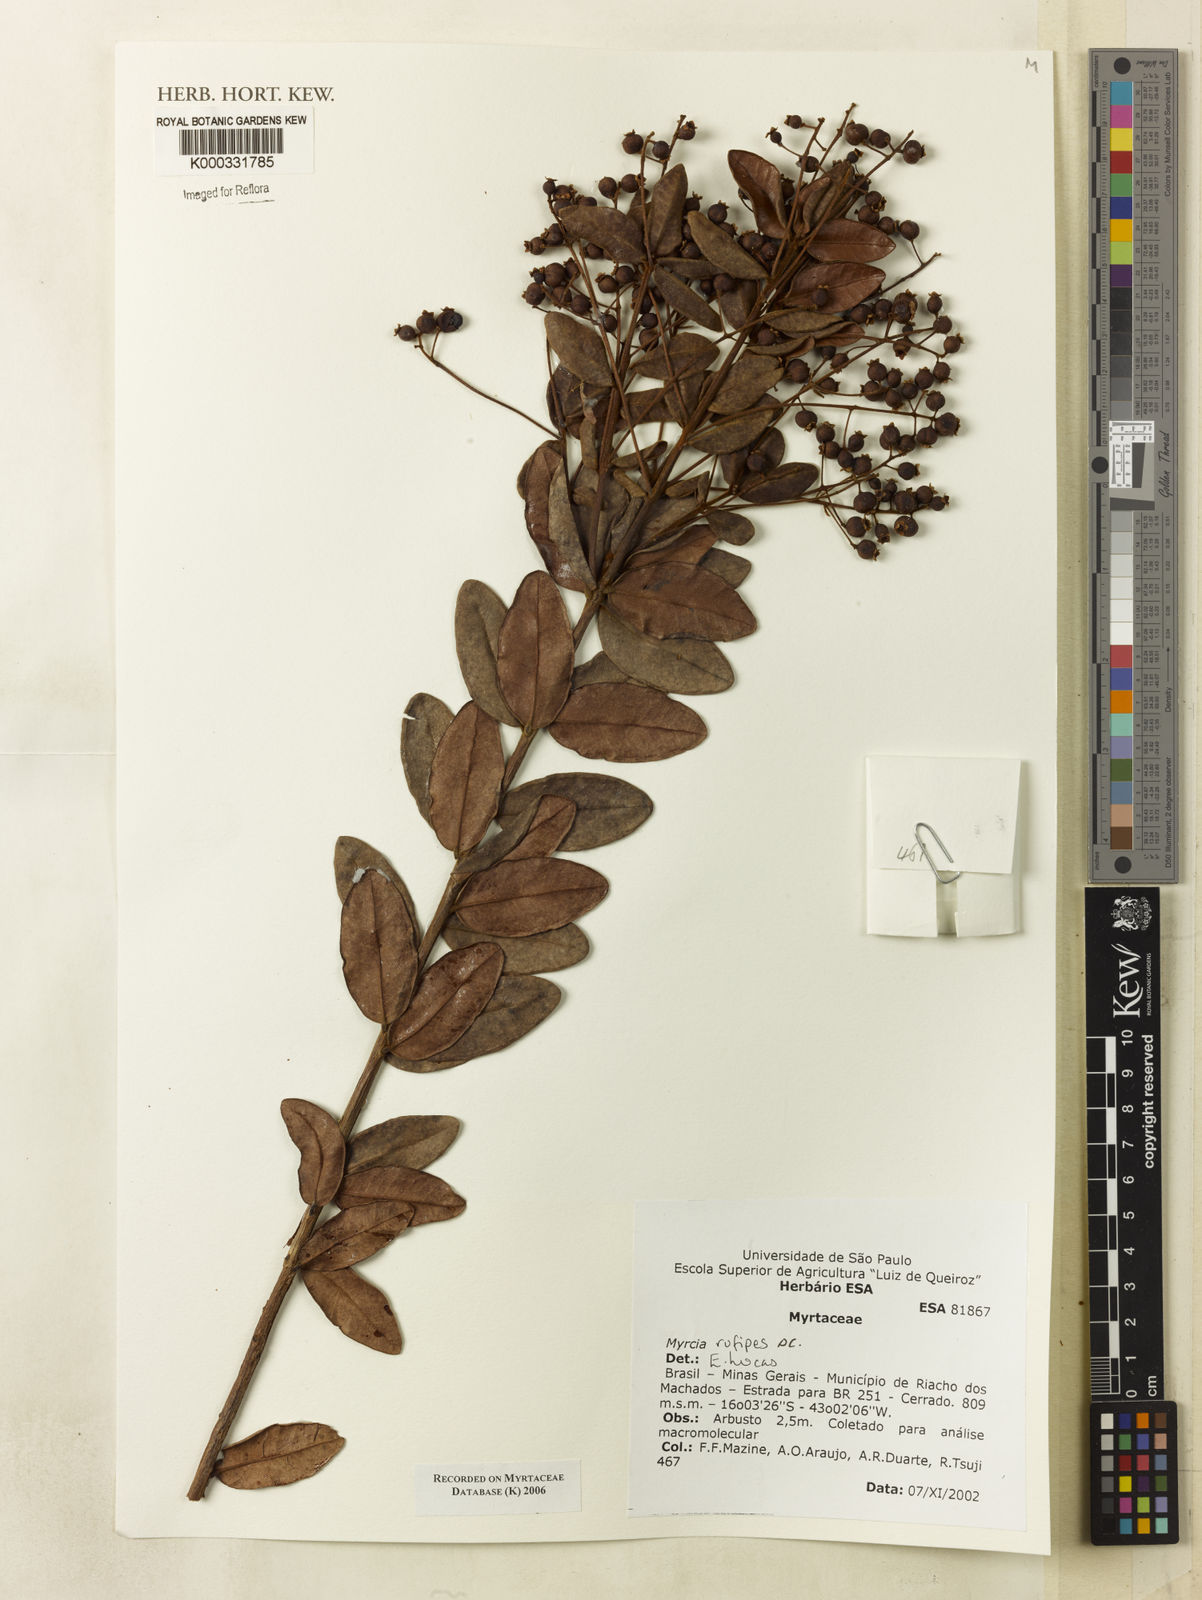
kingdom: Plantae
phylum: Tracheophyta
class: Magnoliopsida
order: Myrtales
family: Myrtaceae
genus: Myrcia
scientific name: Myrcia rufipes
